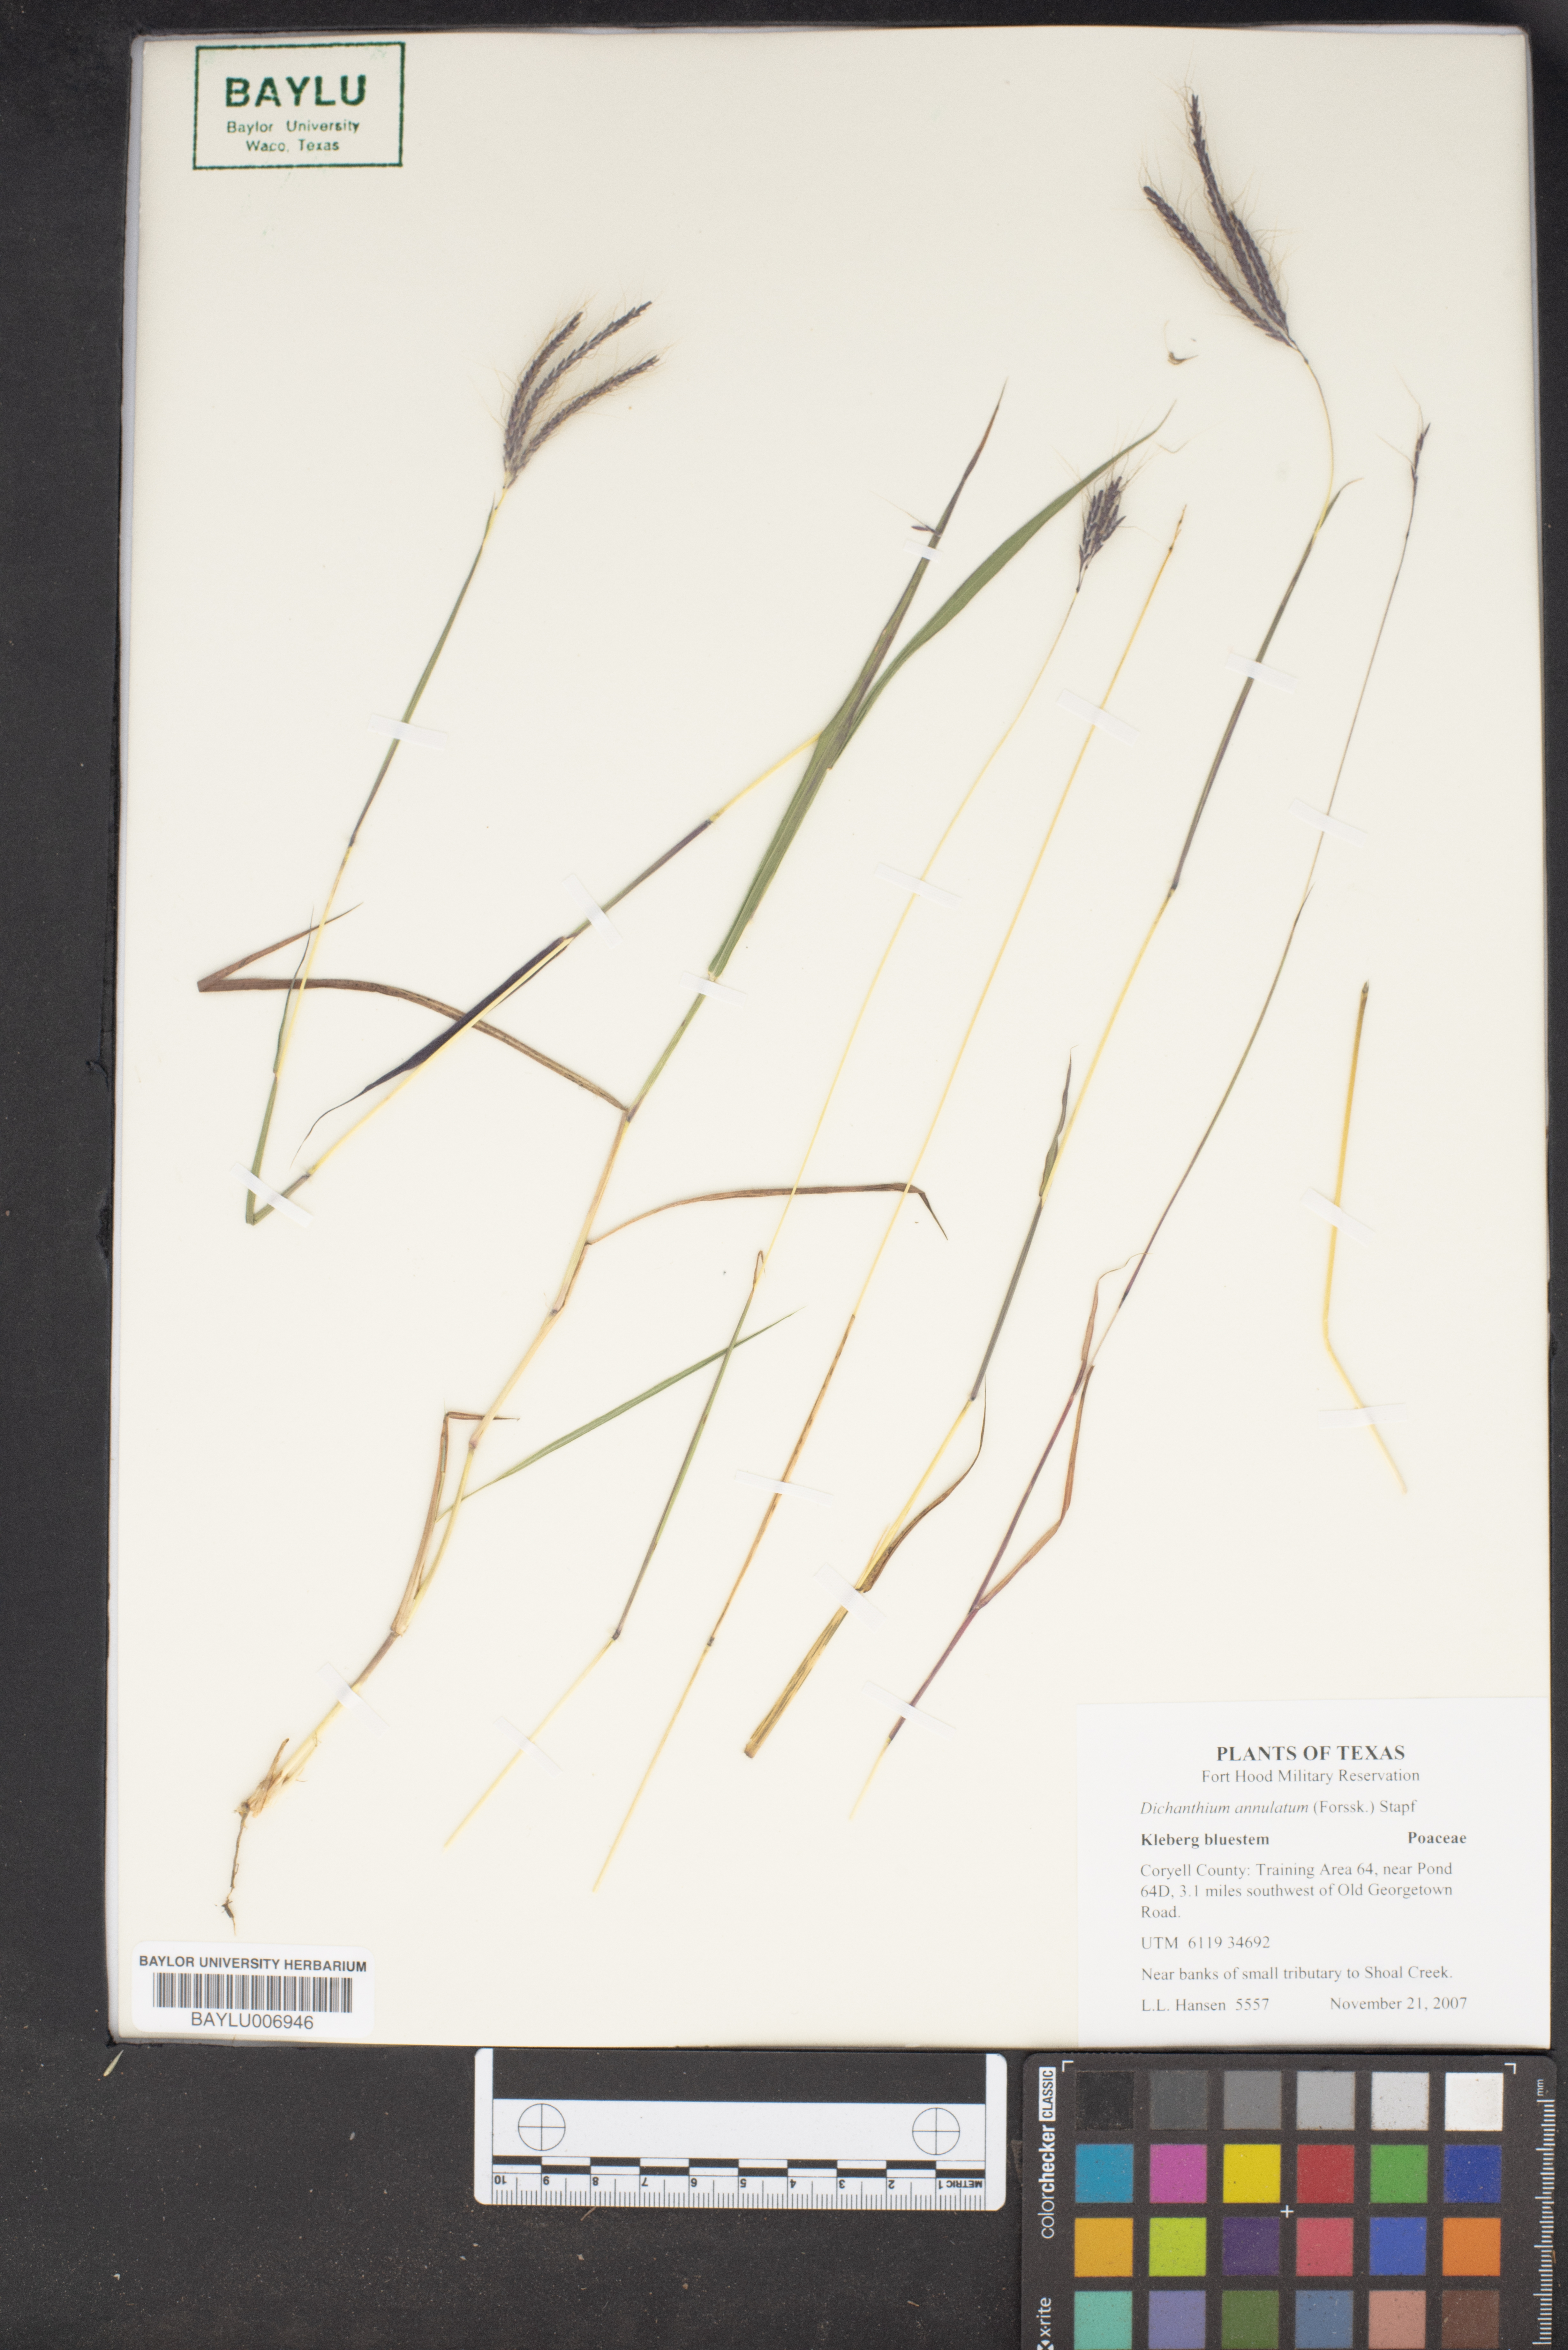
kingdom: Plantae
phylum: Tracheophyta
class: Liliopsida
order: Poales
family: Poaceae
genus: Dichanthium
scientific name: Dichanthium annulatum
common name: Kleberg's bluestem
